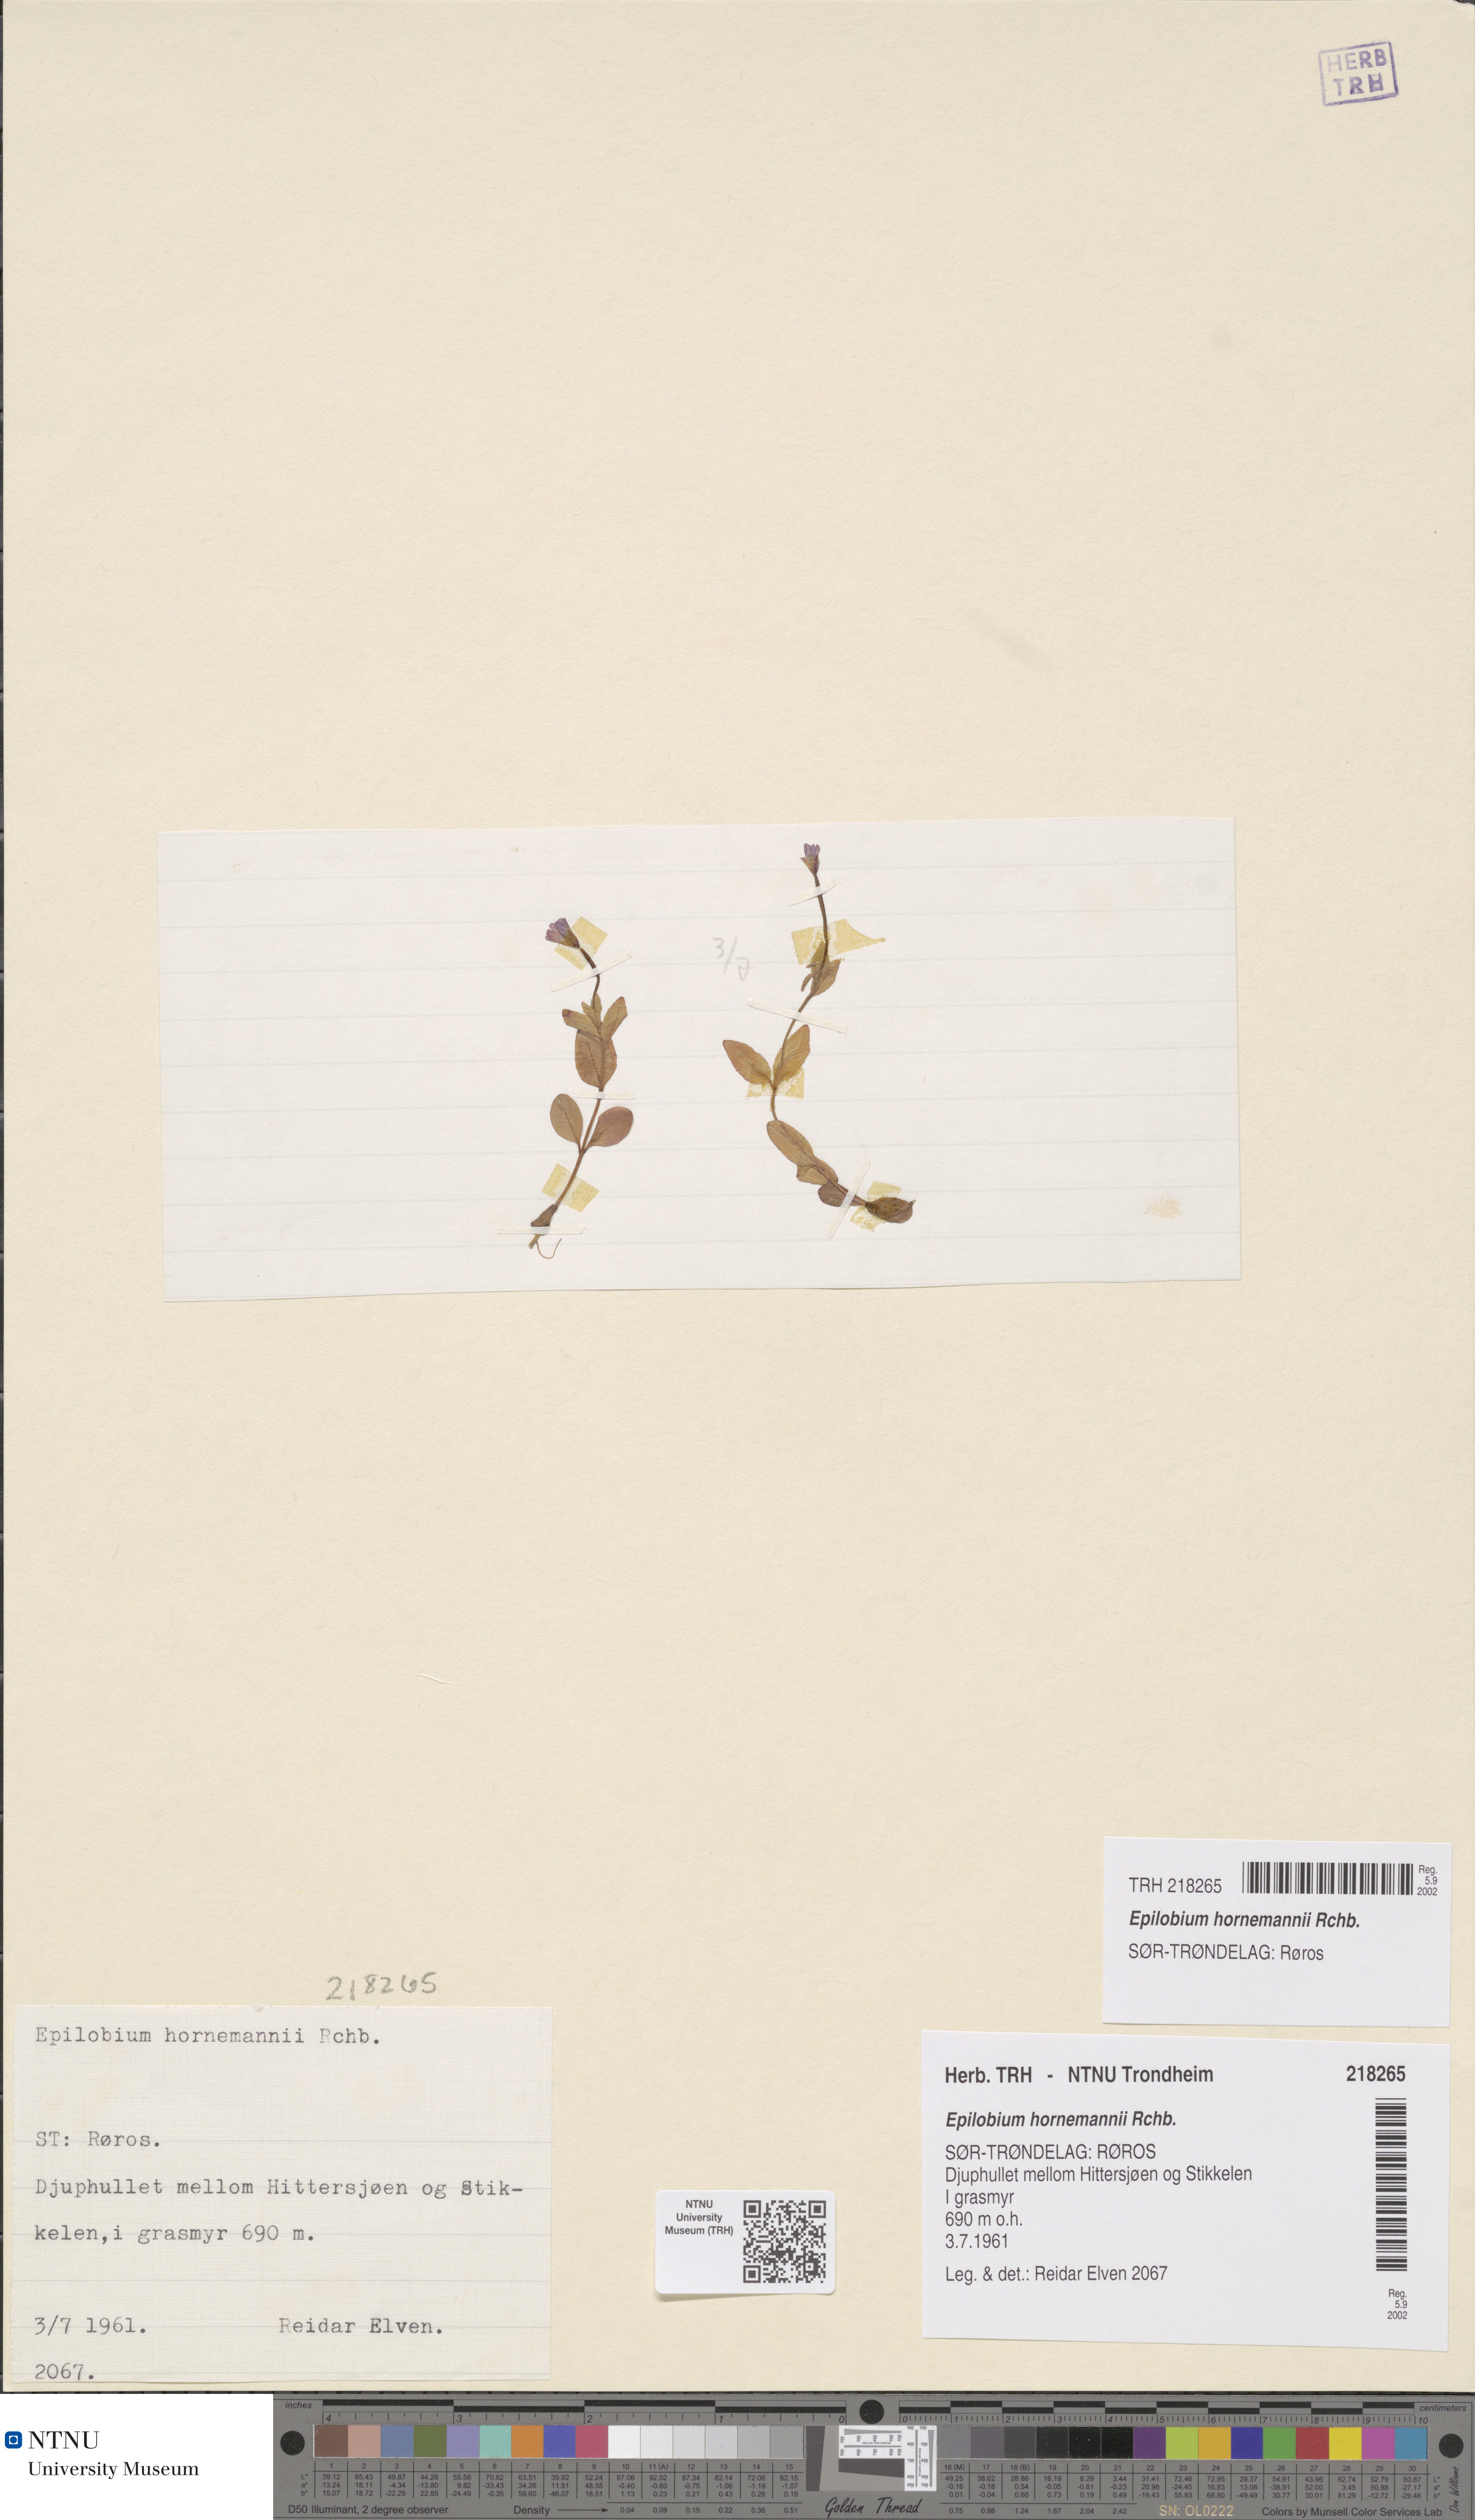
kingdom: Plantae
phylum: Tracheophyta
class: Magnoliopsida
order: Myrtales
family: Onagraceae
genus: Epilobium
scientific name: Epilobium hornemannii
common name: Hornemann's willowherb
